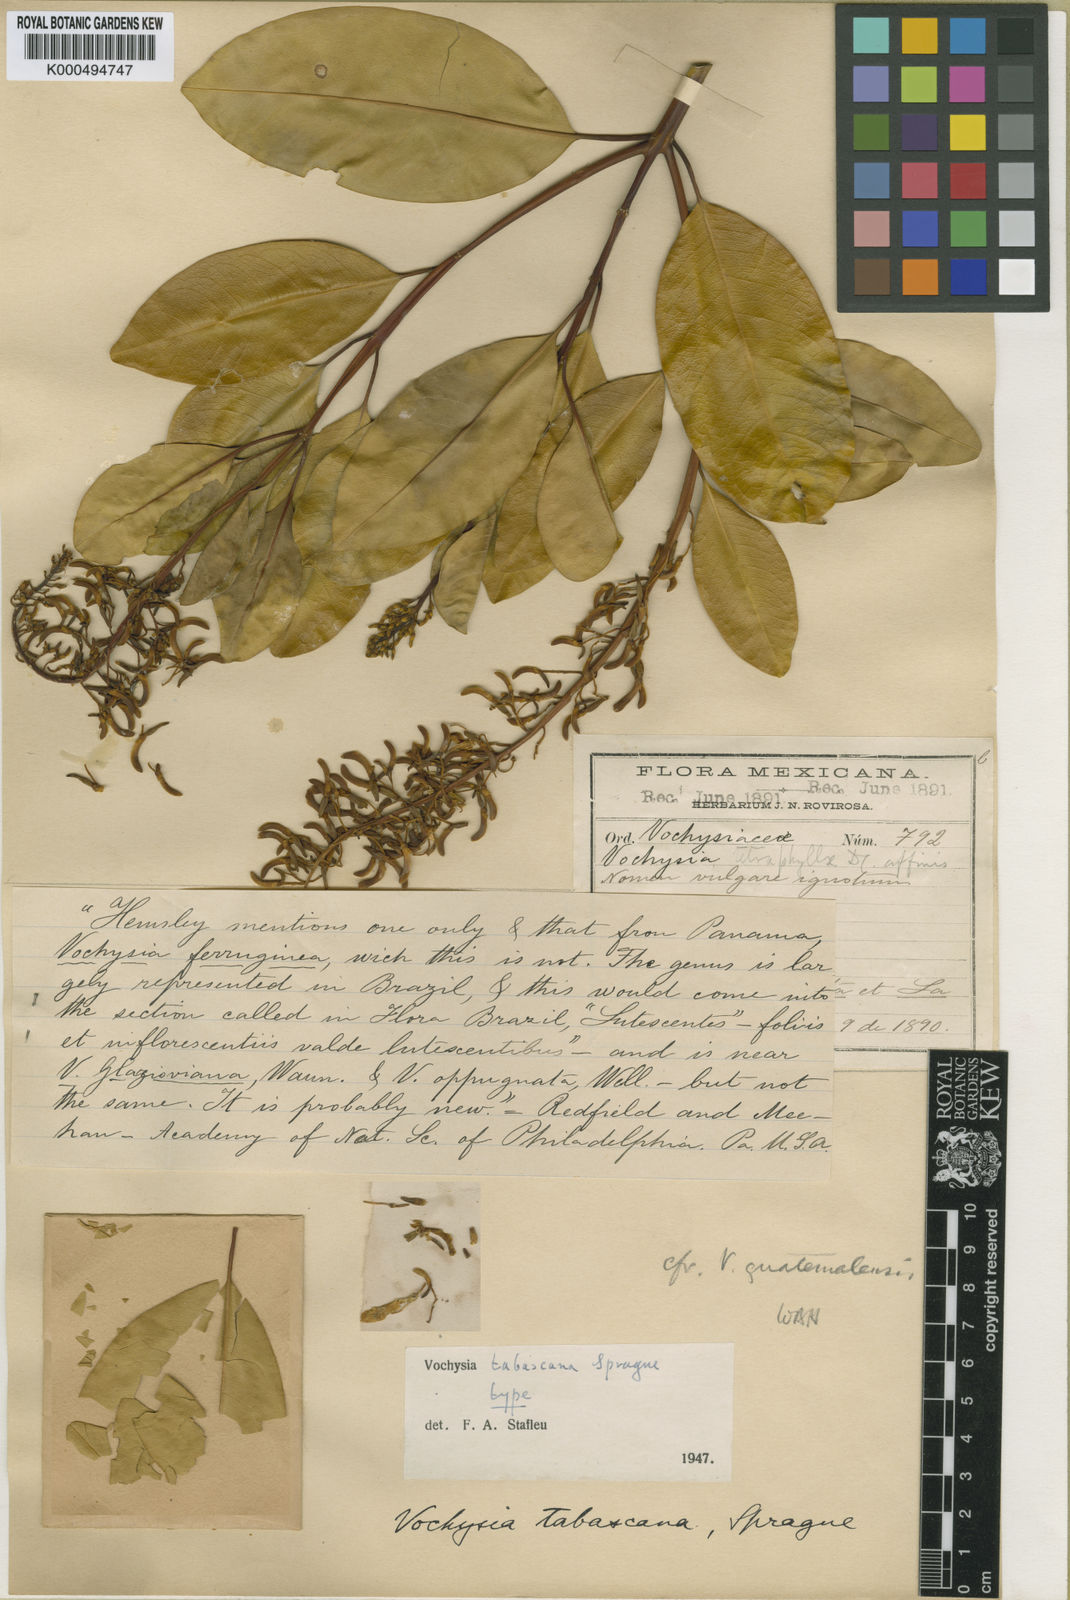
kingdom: Plantae
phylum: Tracheophyta
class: Magnoliopsida
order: Myrtales
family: Vochysiaceae
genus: Vochysia
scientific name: Vochysia tabascana
